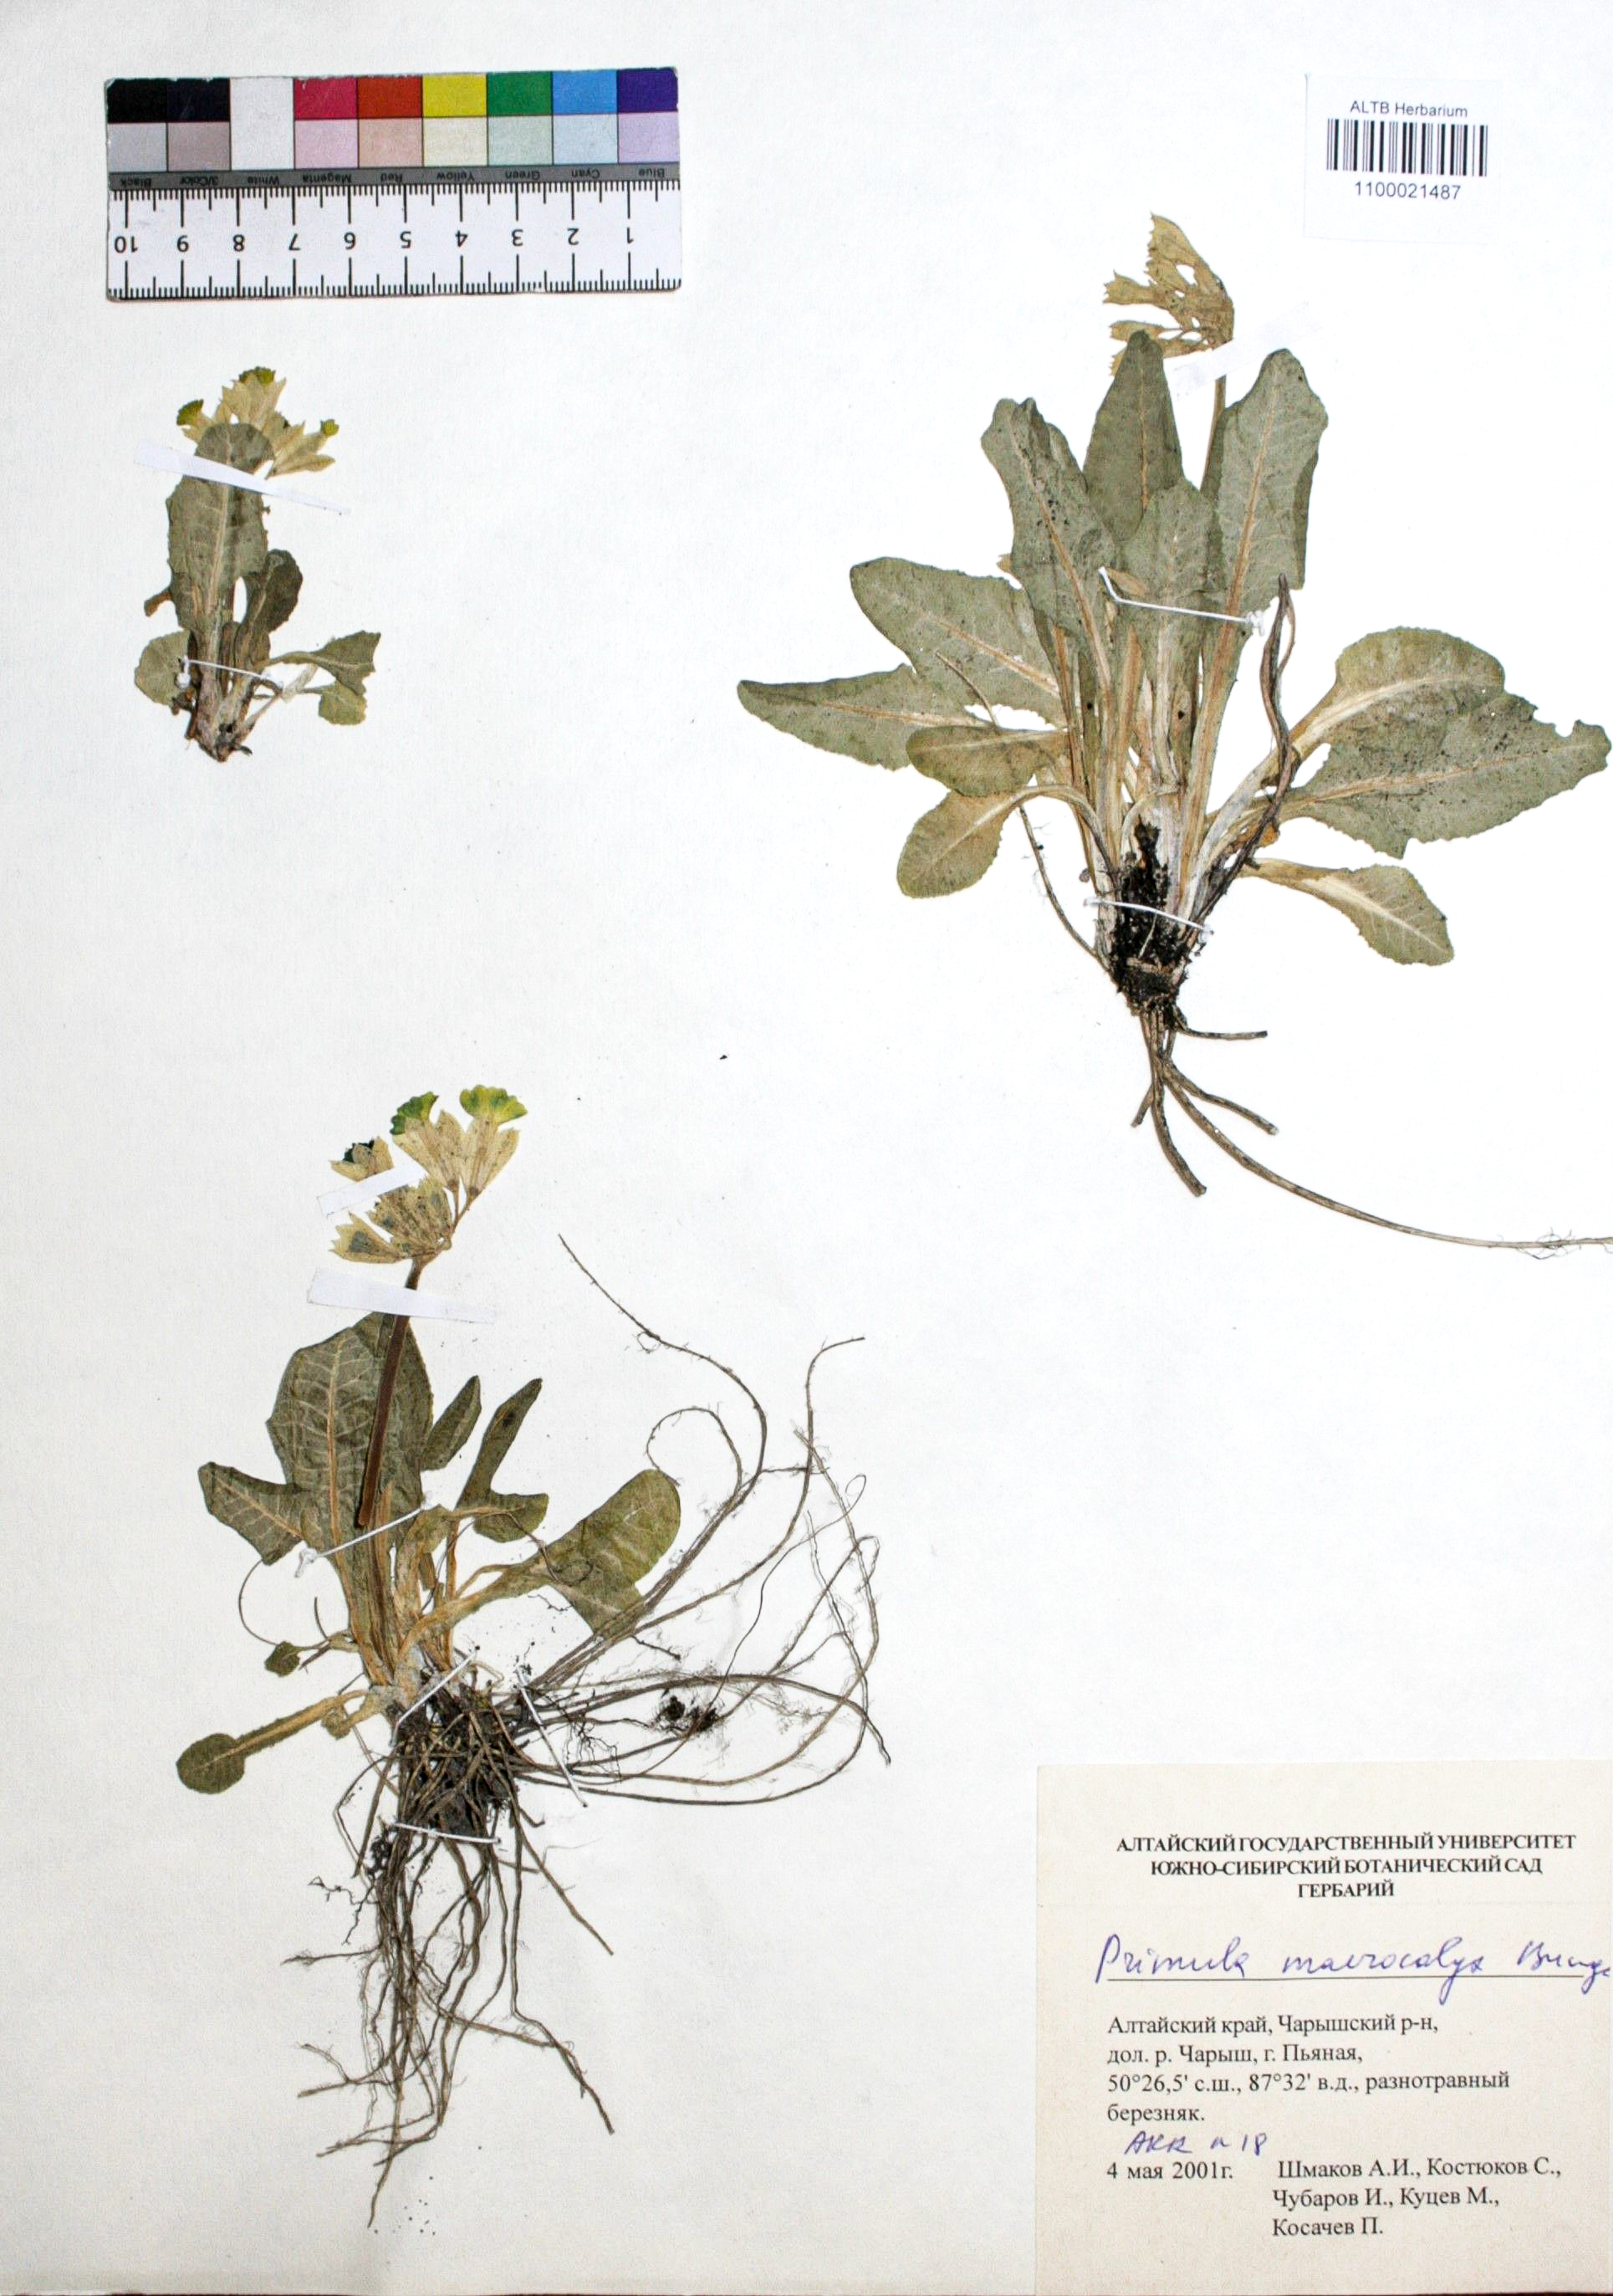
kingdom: Plantae
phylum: Tracheophyta
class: Magnoliopsida
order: Ericales
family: Primulaceae
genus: Primula
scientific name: Primula veris
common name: Cowslip
